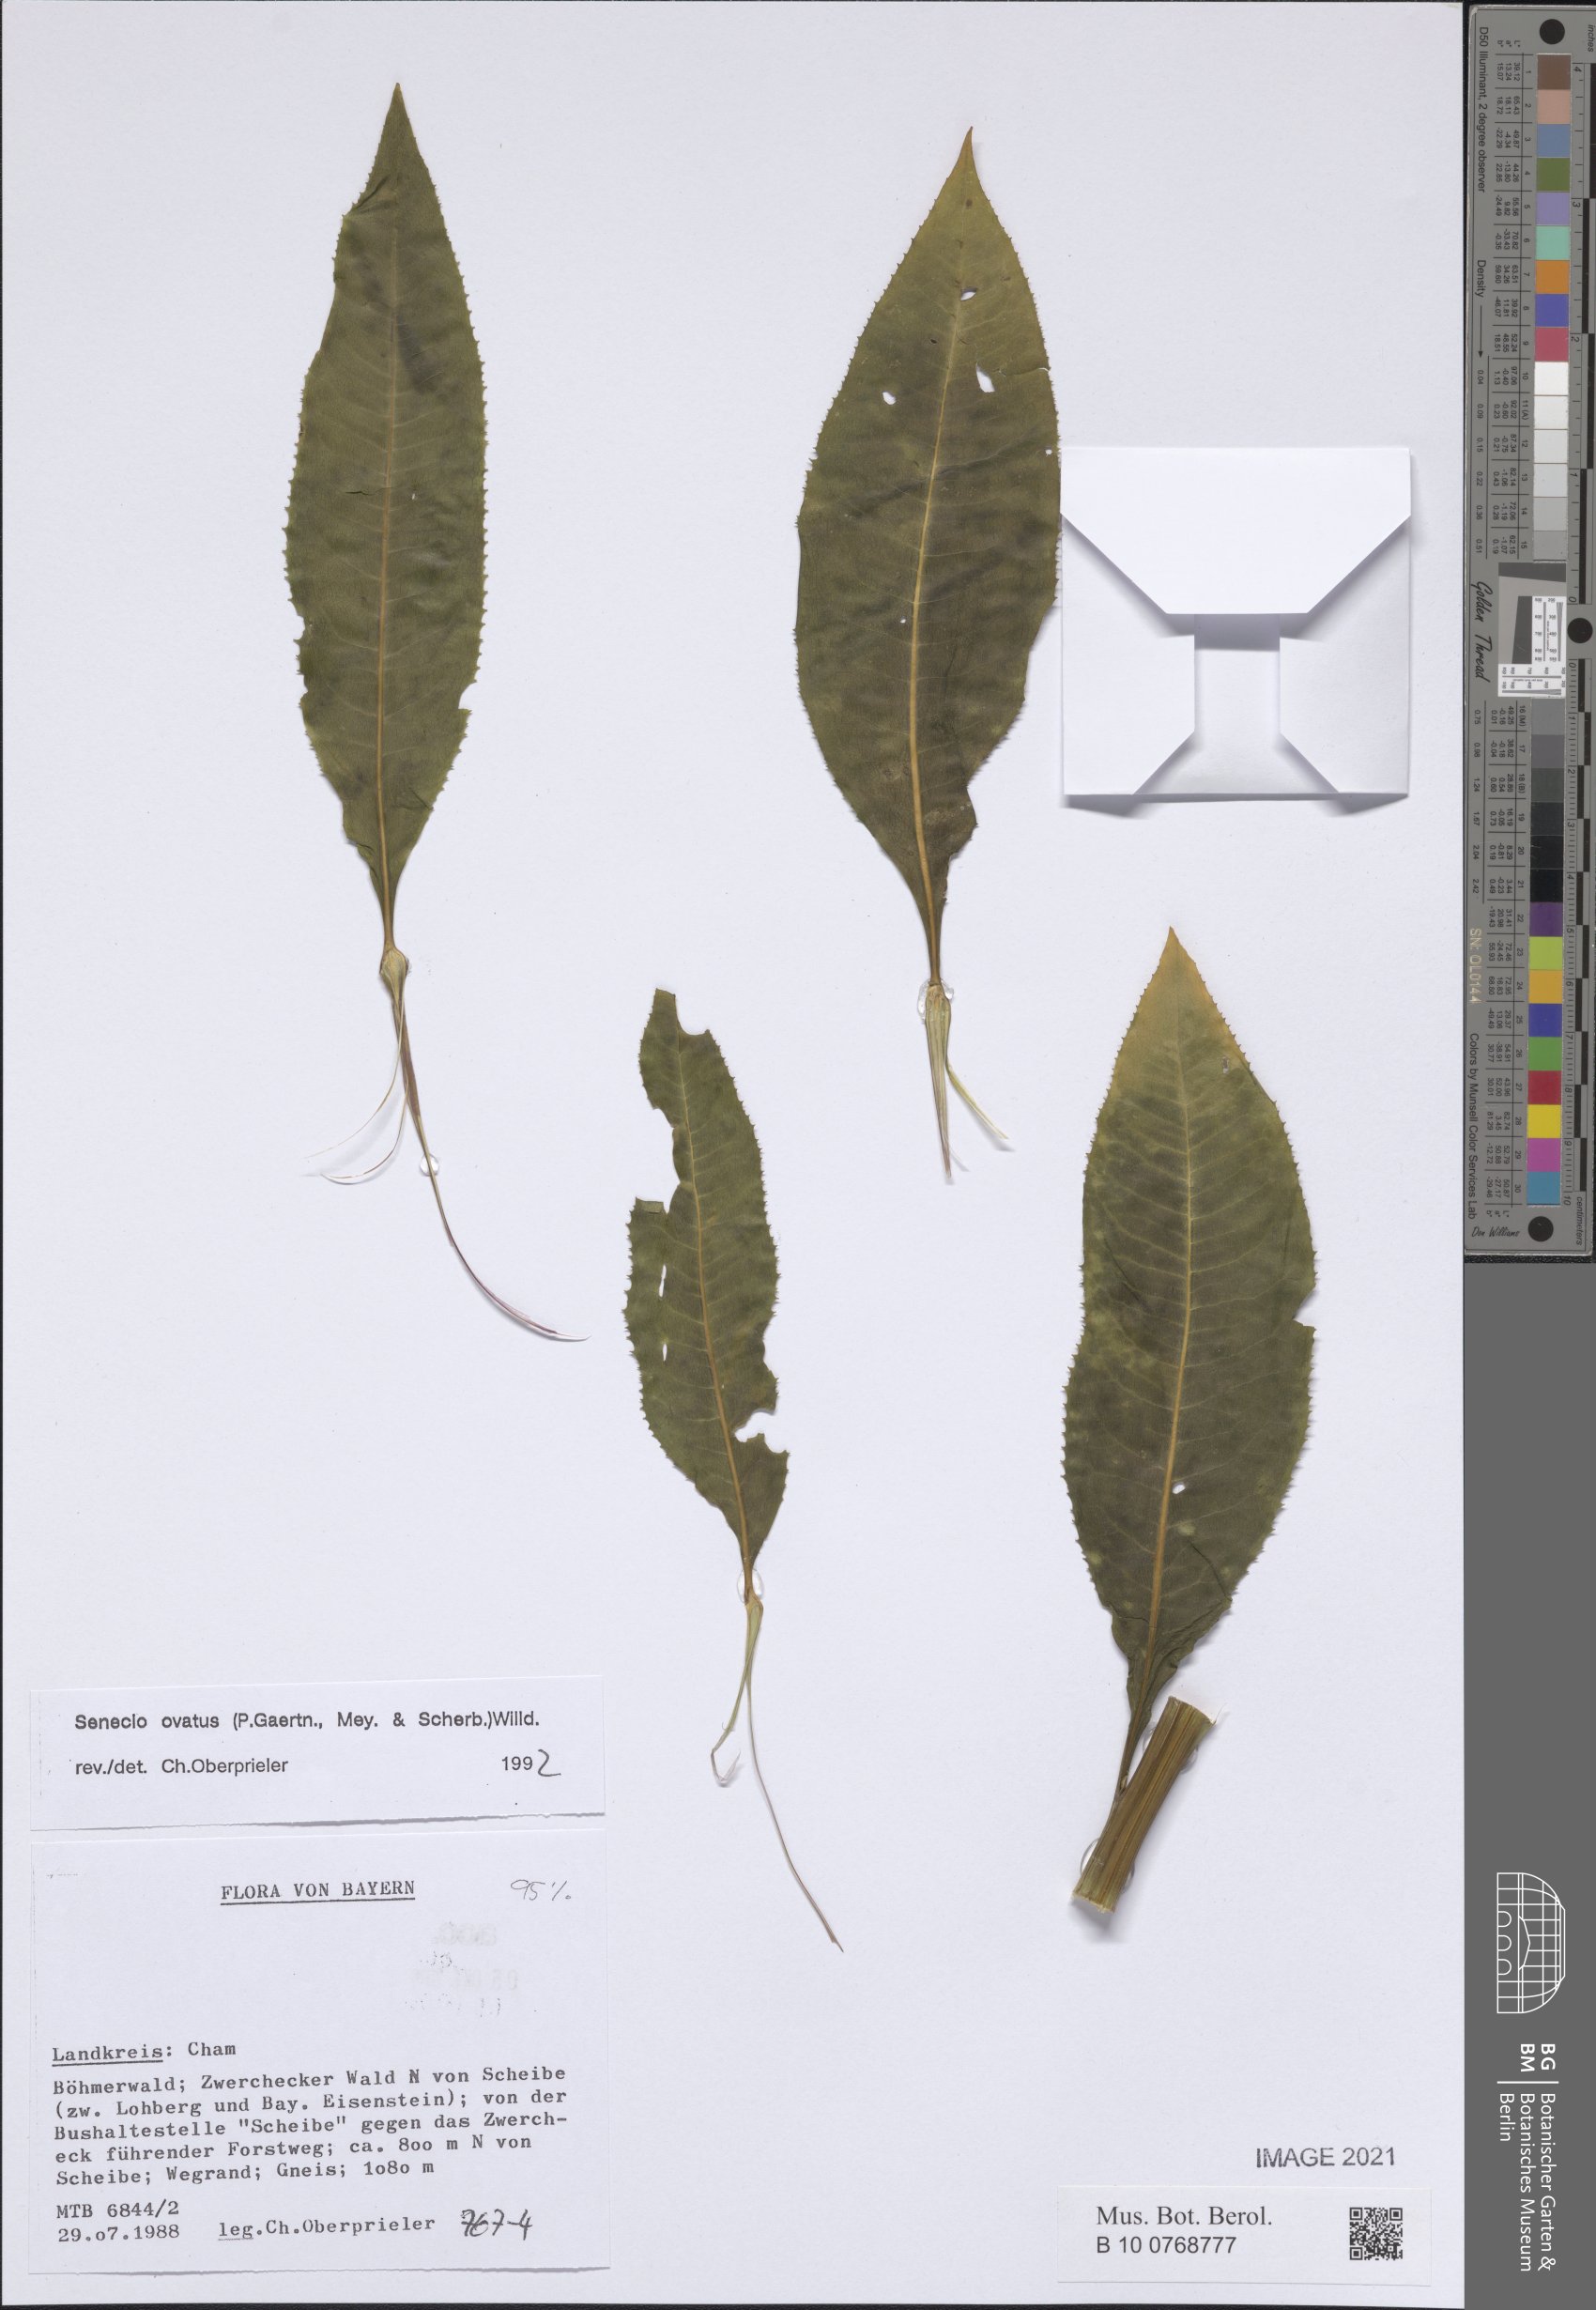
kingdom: Plantae
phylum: Tracheophyta
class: Magnoliopsida
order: Asterales
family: Asteraceae
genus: Senecio
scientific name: Senecio ovatus
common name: Wood ragwort
